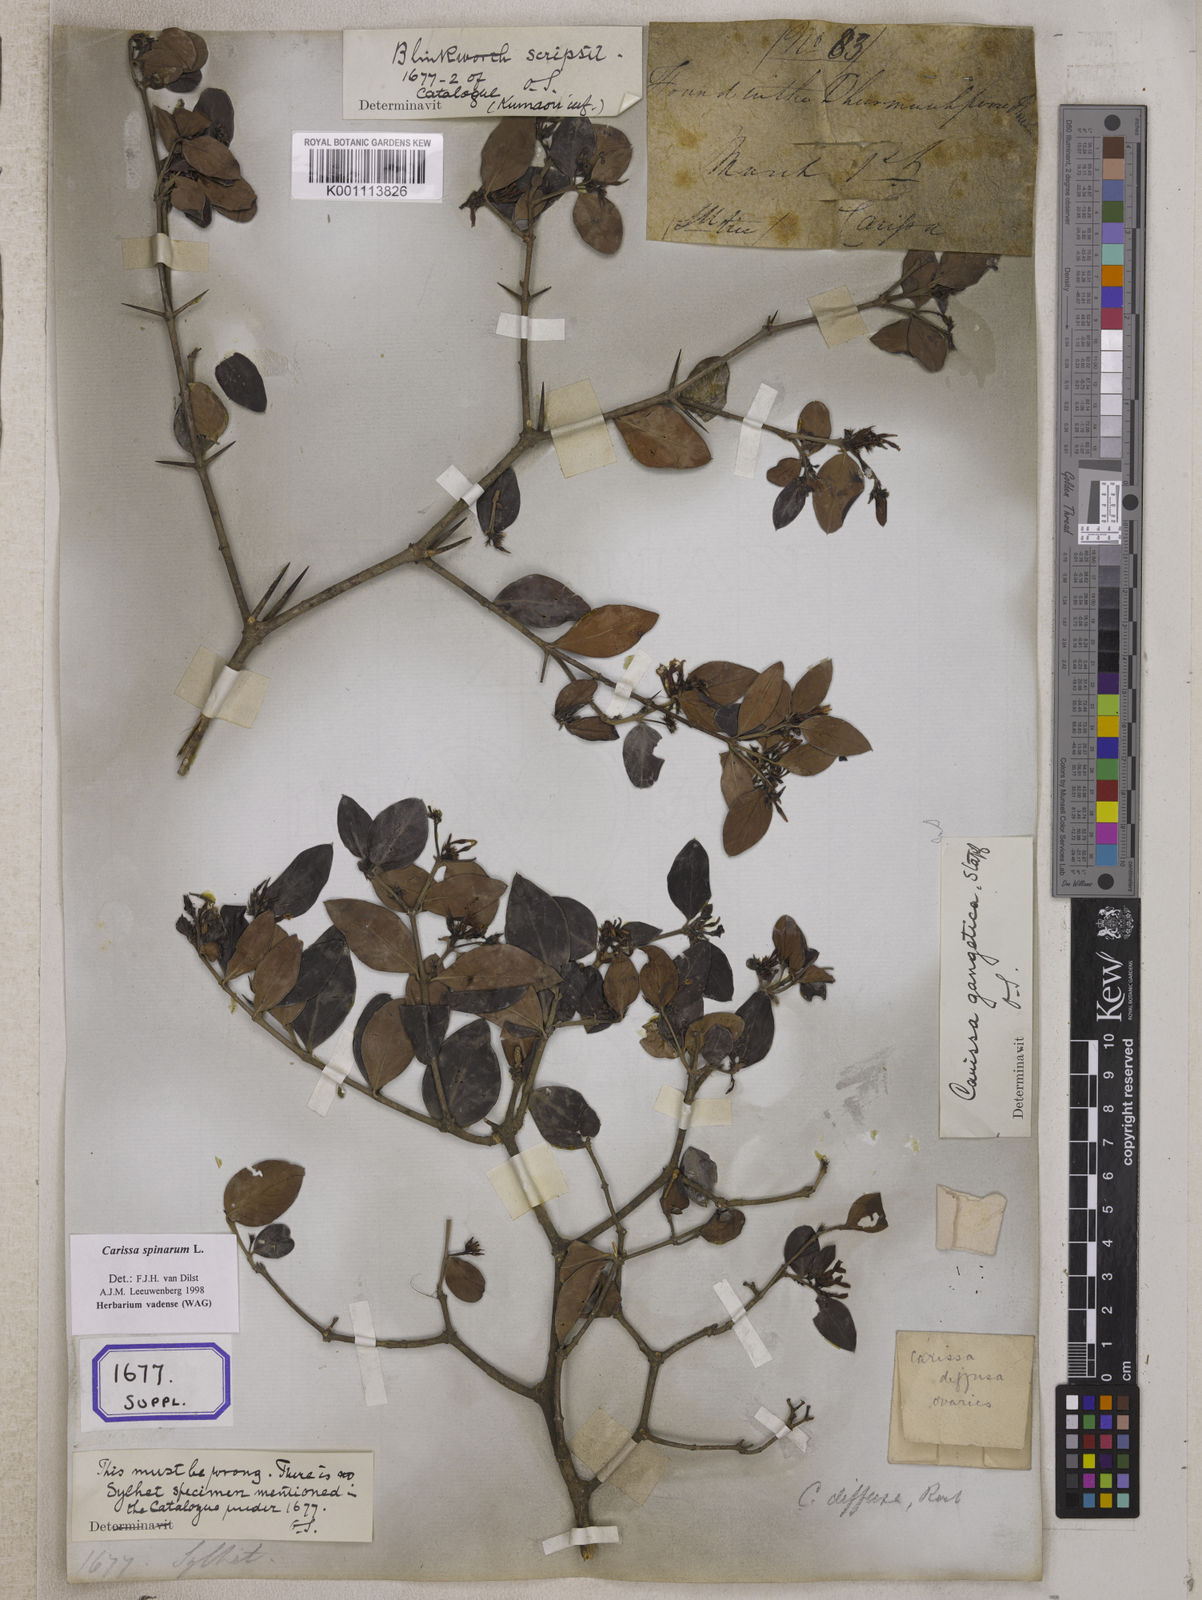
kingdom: Plantae
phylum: Tracheophyta
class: Magnoliopsida
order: Gentianales
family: Apocynaceae
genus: Carissa
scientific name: Carissa carandas
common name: Karanda
